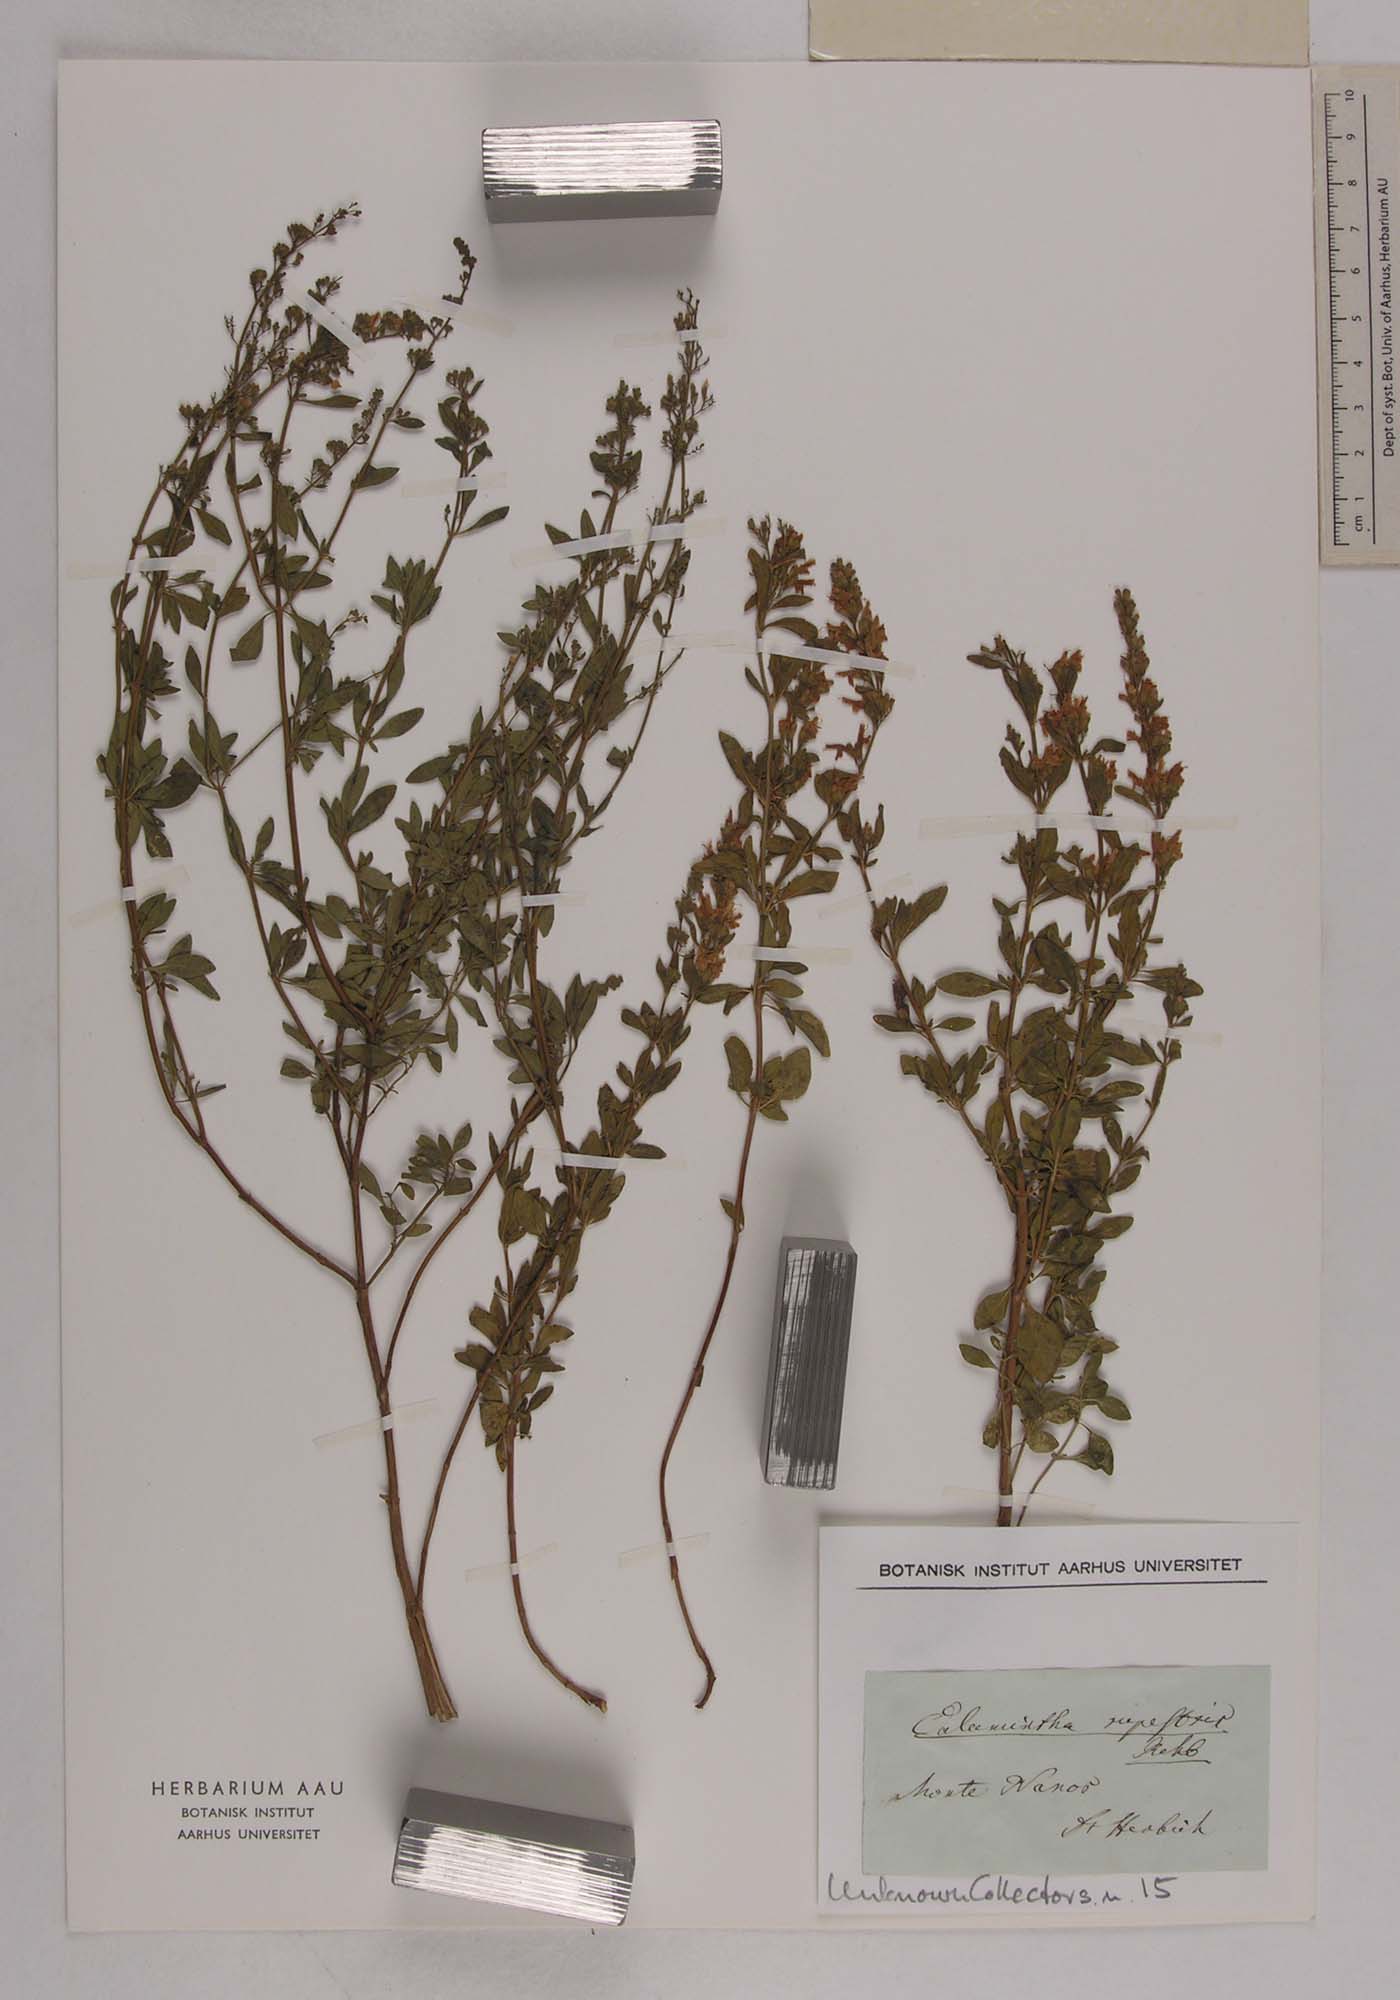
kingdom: Plantae
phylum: Tracheophyta
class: Magnoliopsida
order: Lamiales
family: Lamiaceae
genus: Clinopodium
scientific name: Clinopodium album
